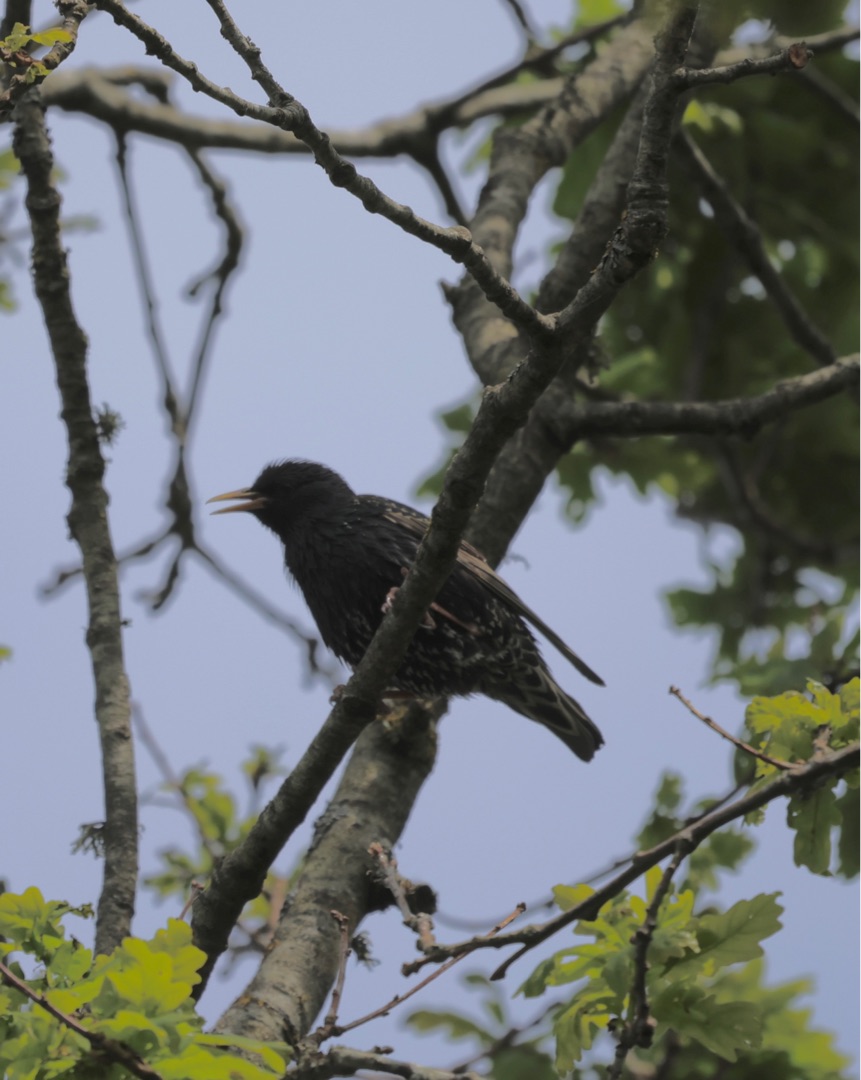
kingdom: Animalia
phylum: Chordata
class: Aves
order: Passeriformes
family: Sturnidae
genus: Sturnus
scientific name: Sturnus vulgaris
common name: Stær
